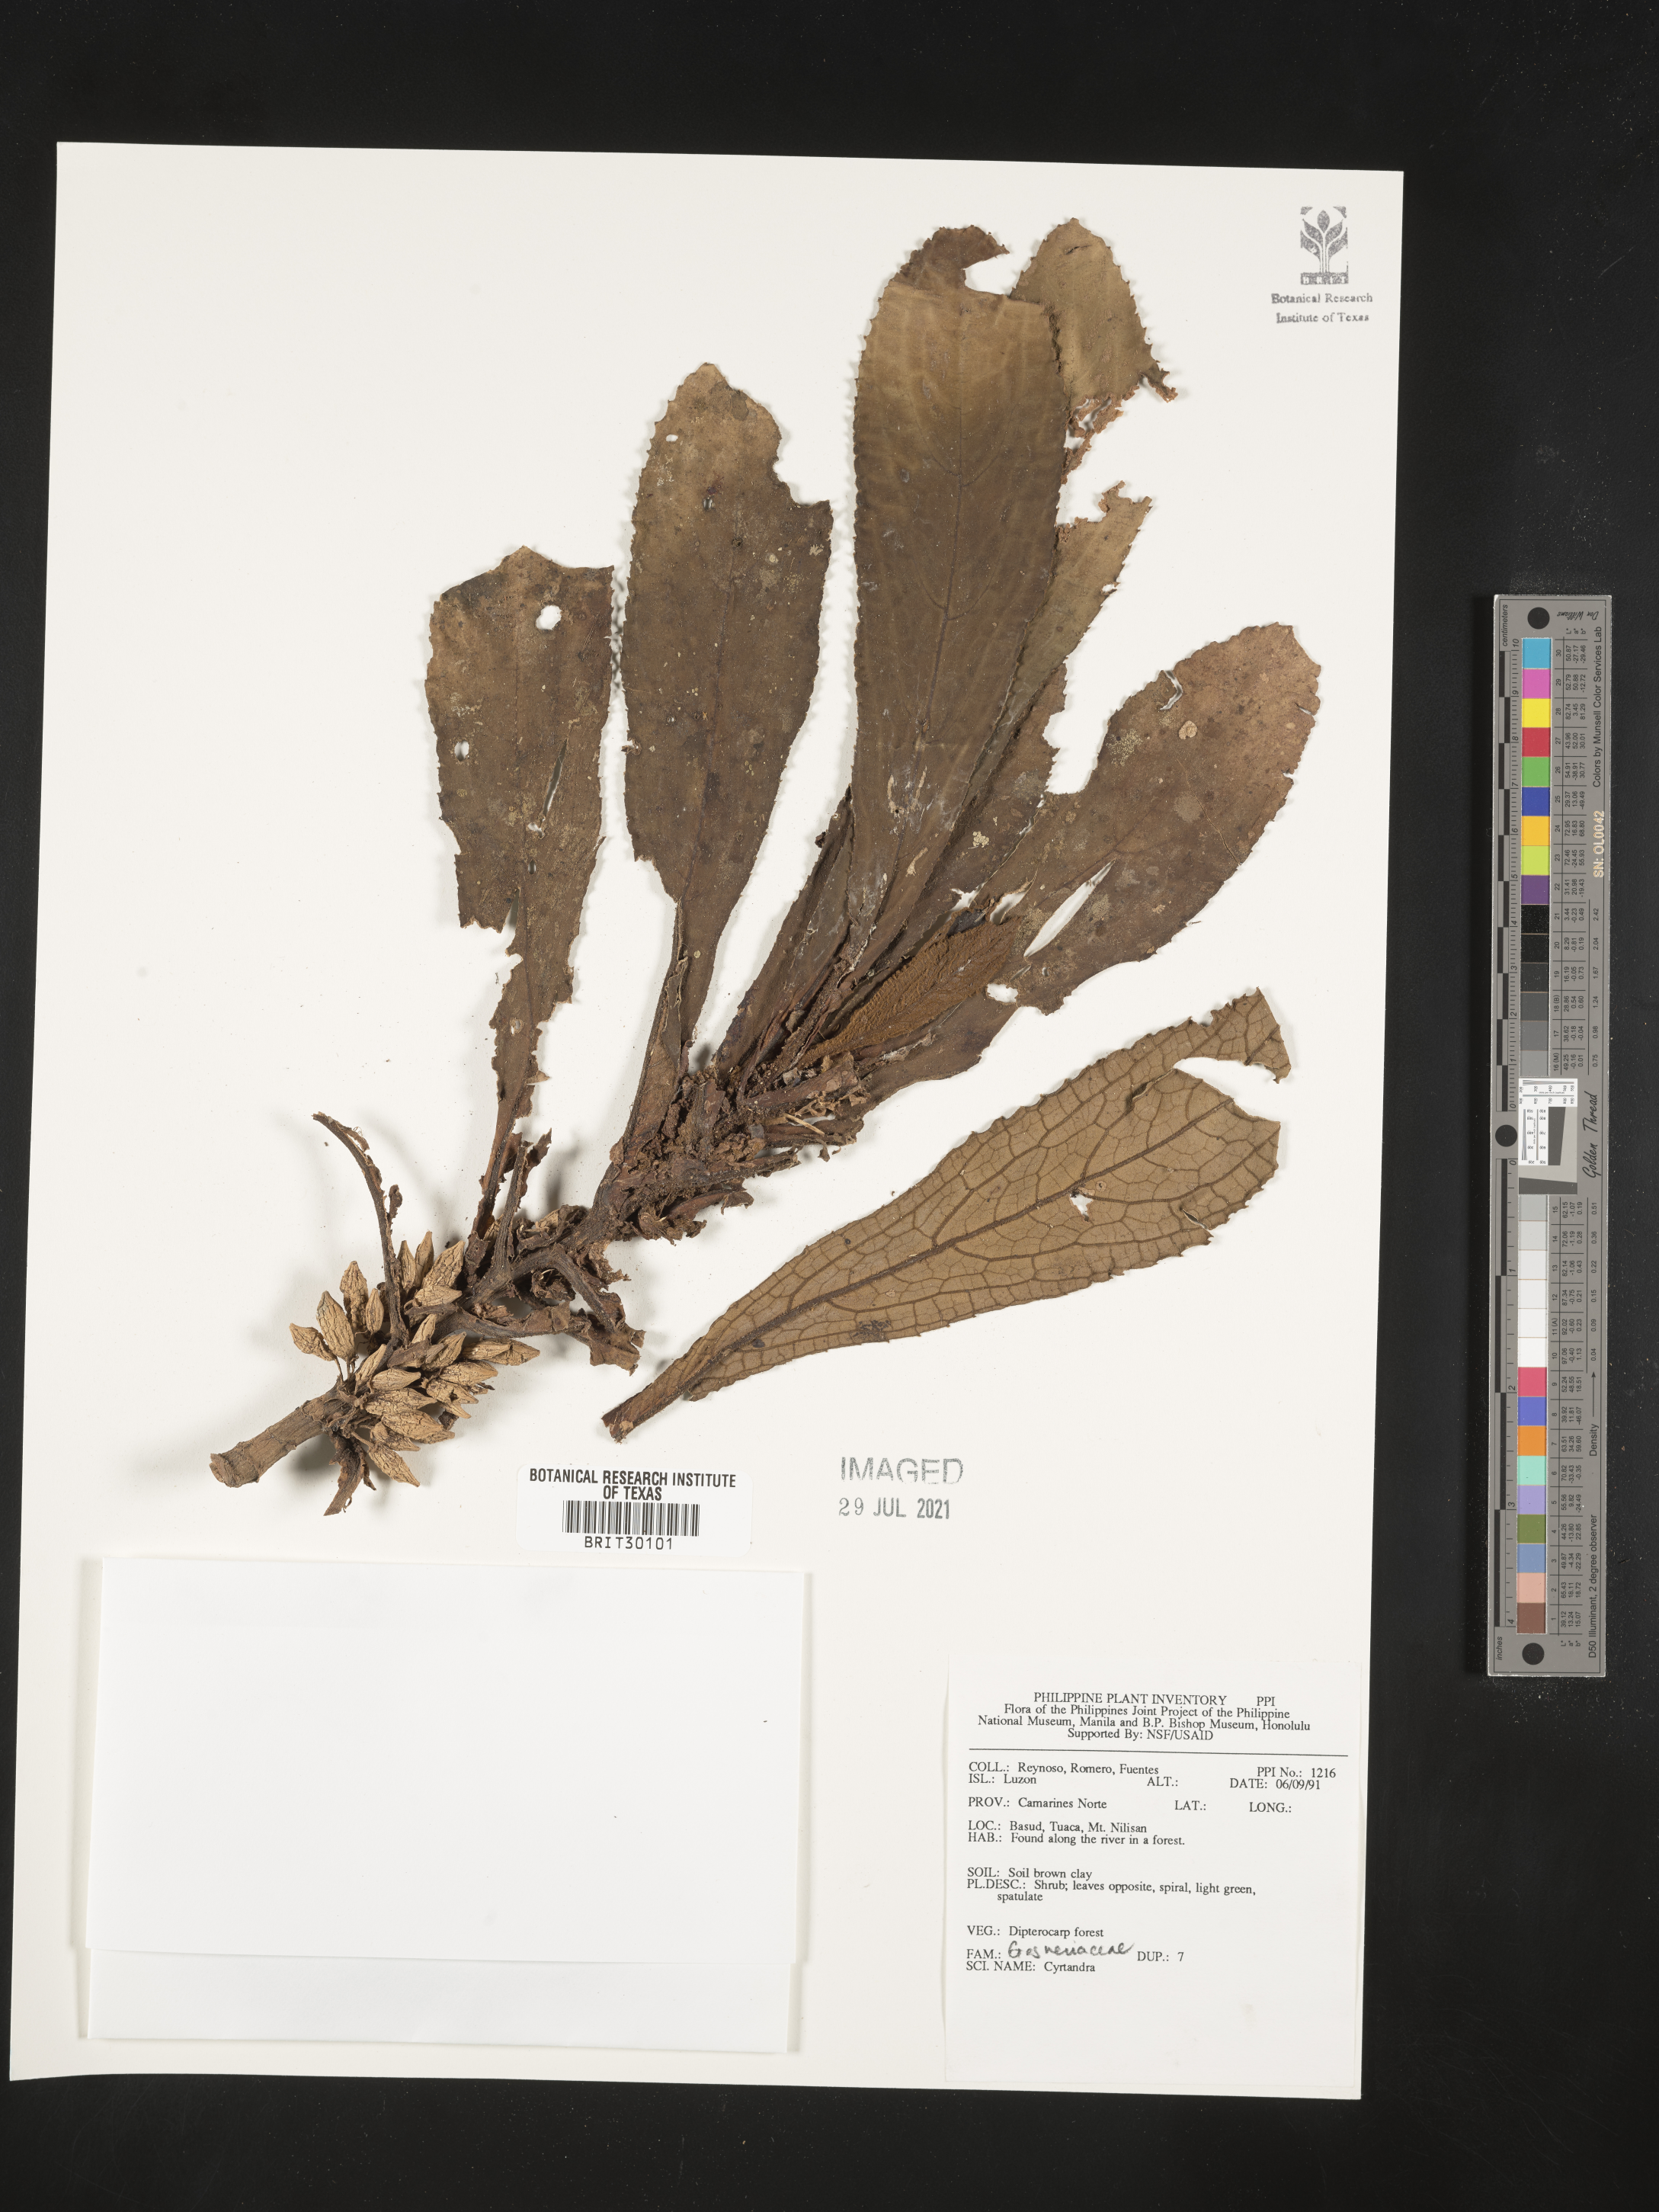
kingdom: Plantae
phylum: Tracheophyta
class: Magnoliopsida
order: Lamiales
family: Gesneriaceae
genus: Cyrtandra
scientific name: Cyrtandra
